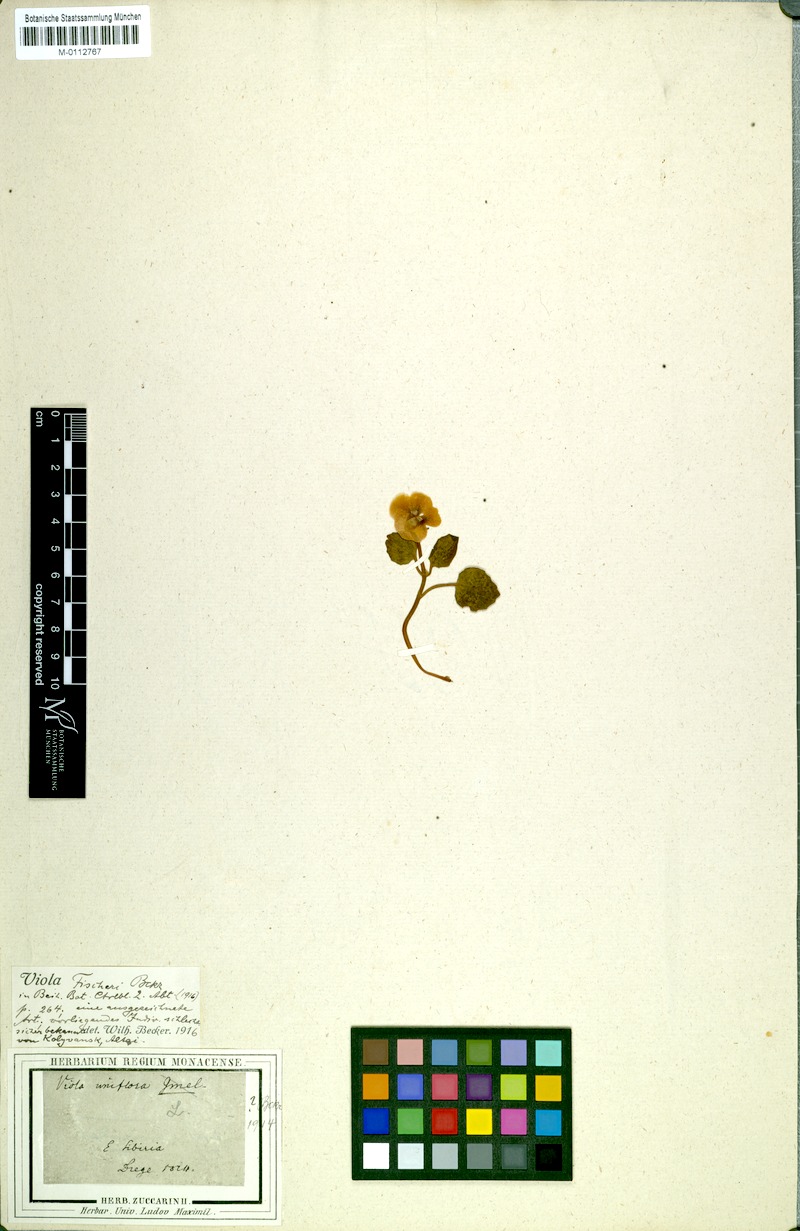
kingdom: Plantae
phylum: Tracheophyta
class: Magnoliopsida
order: Malpighiales
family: Violaceae
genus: Viola
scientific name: Viola fischeri
